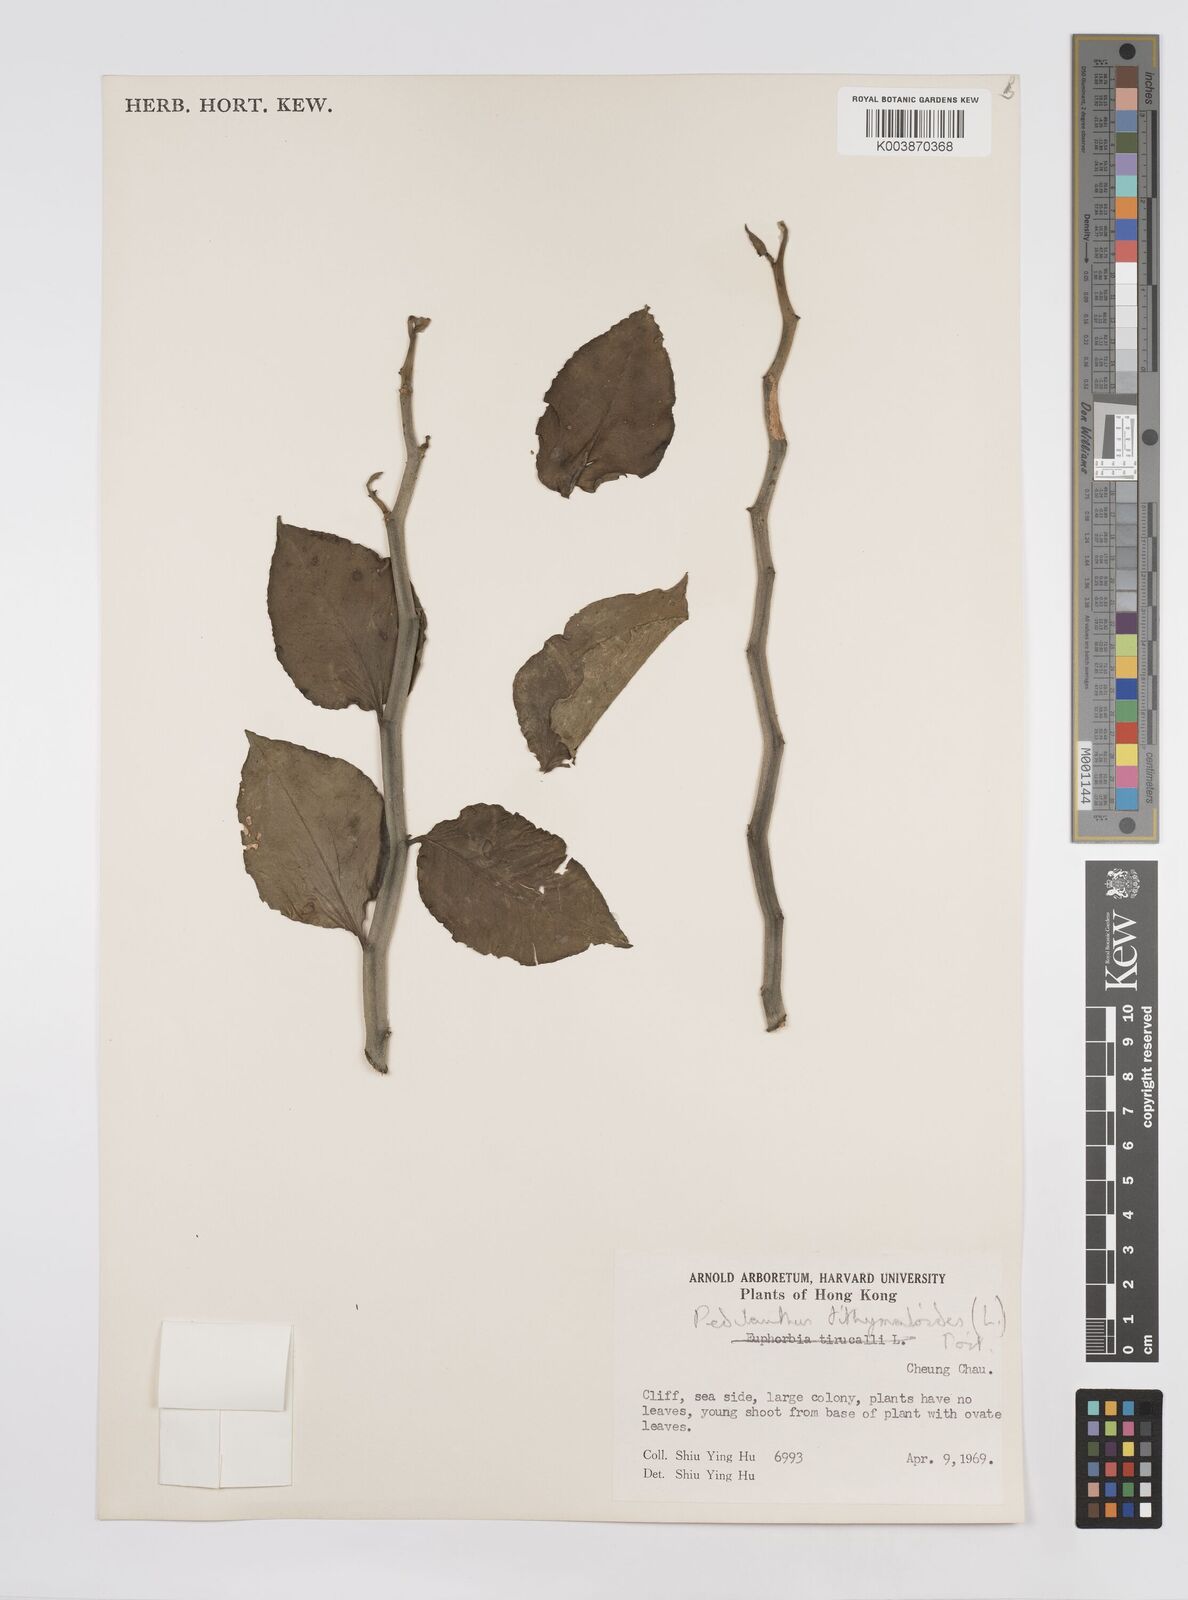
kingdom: Plantae
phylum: Tracheophyta
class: Magnoliopsida
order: Malpighiales
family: Euphorbiaceae
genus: Euphorbia
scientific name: Euphorbia tithymaloides
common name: Slipperplant
